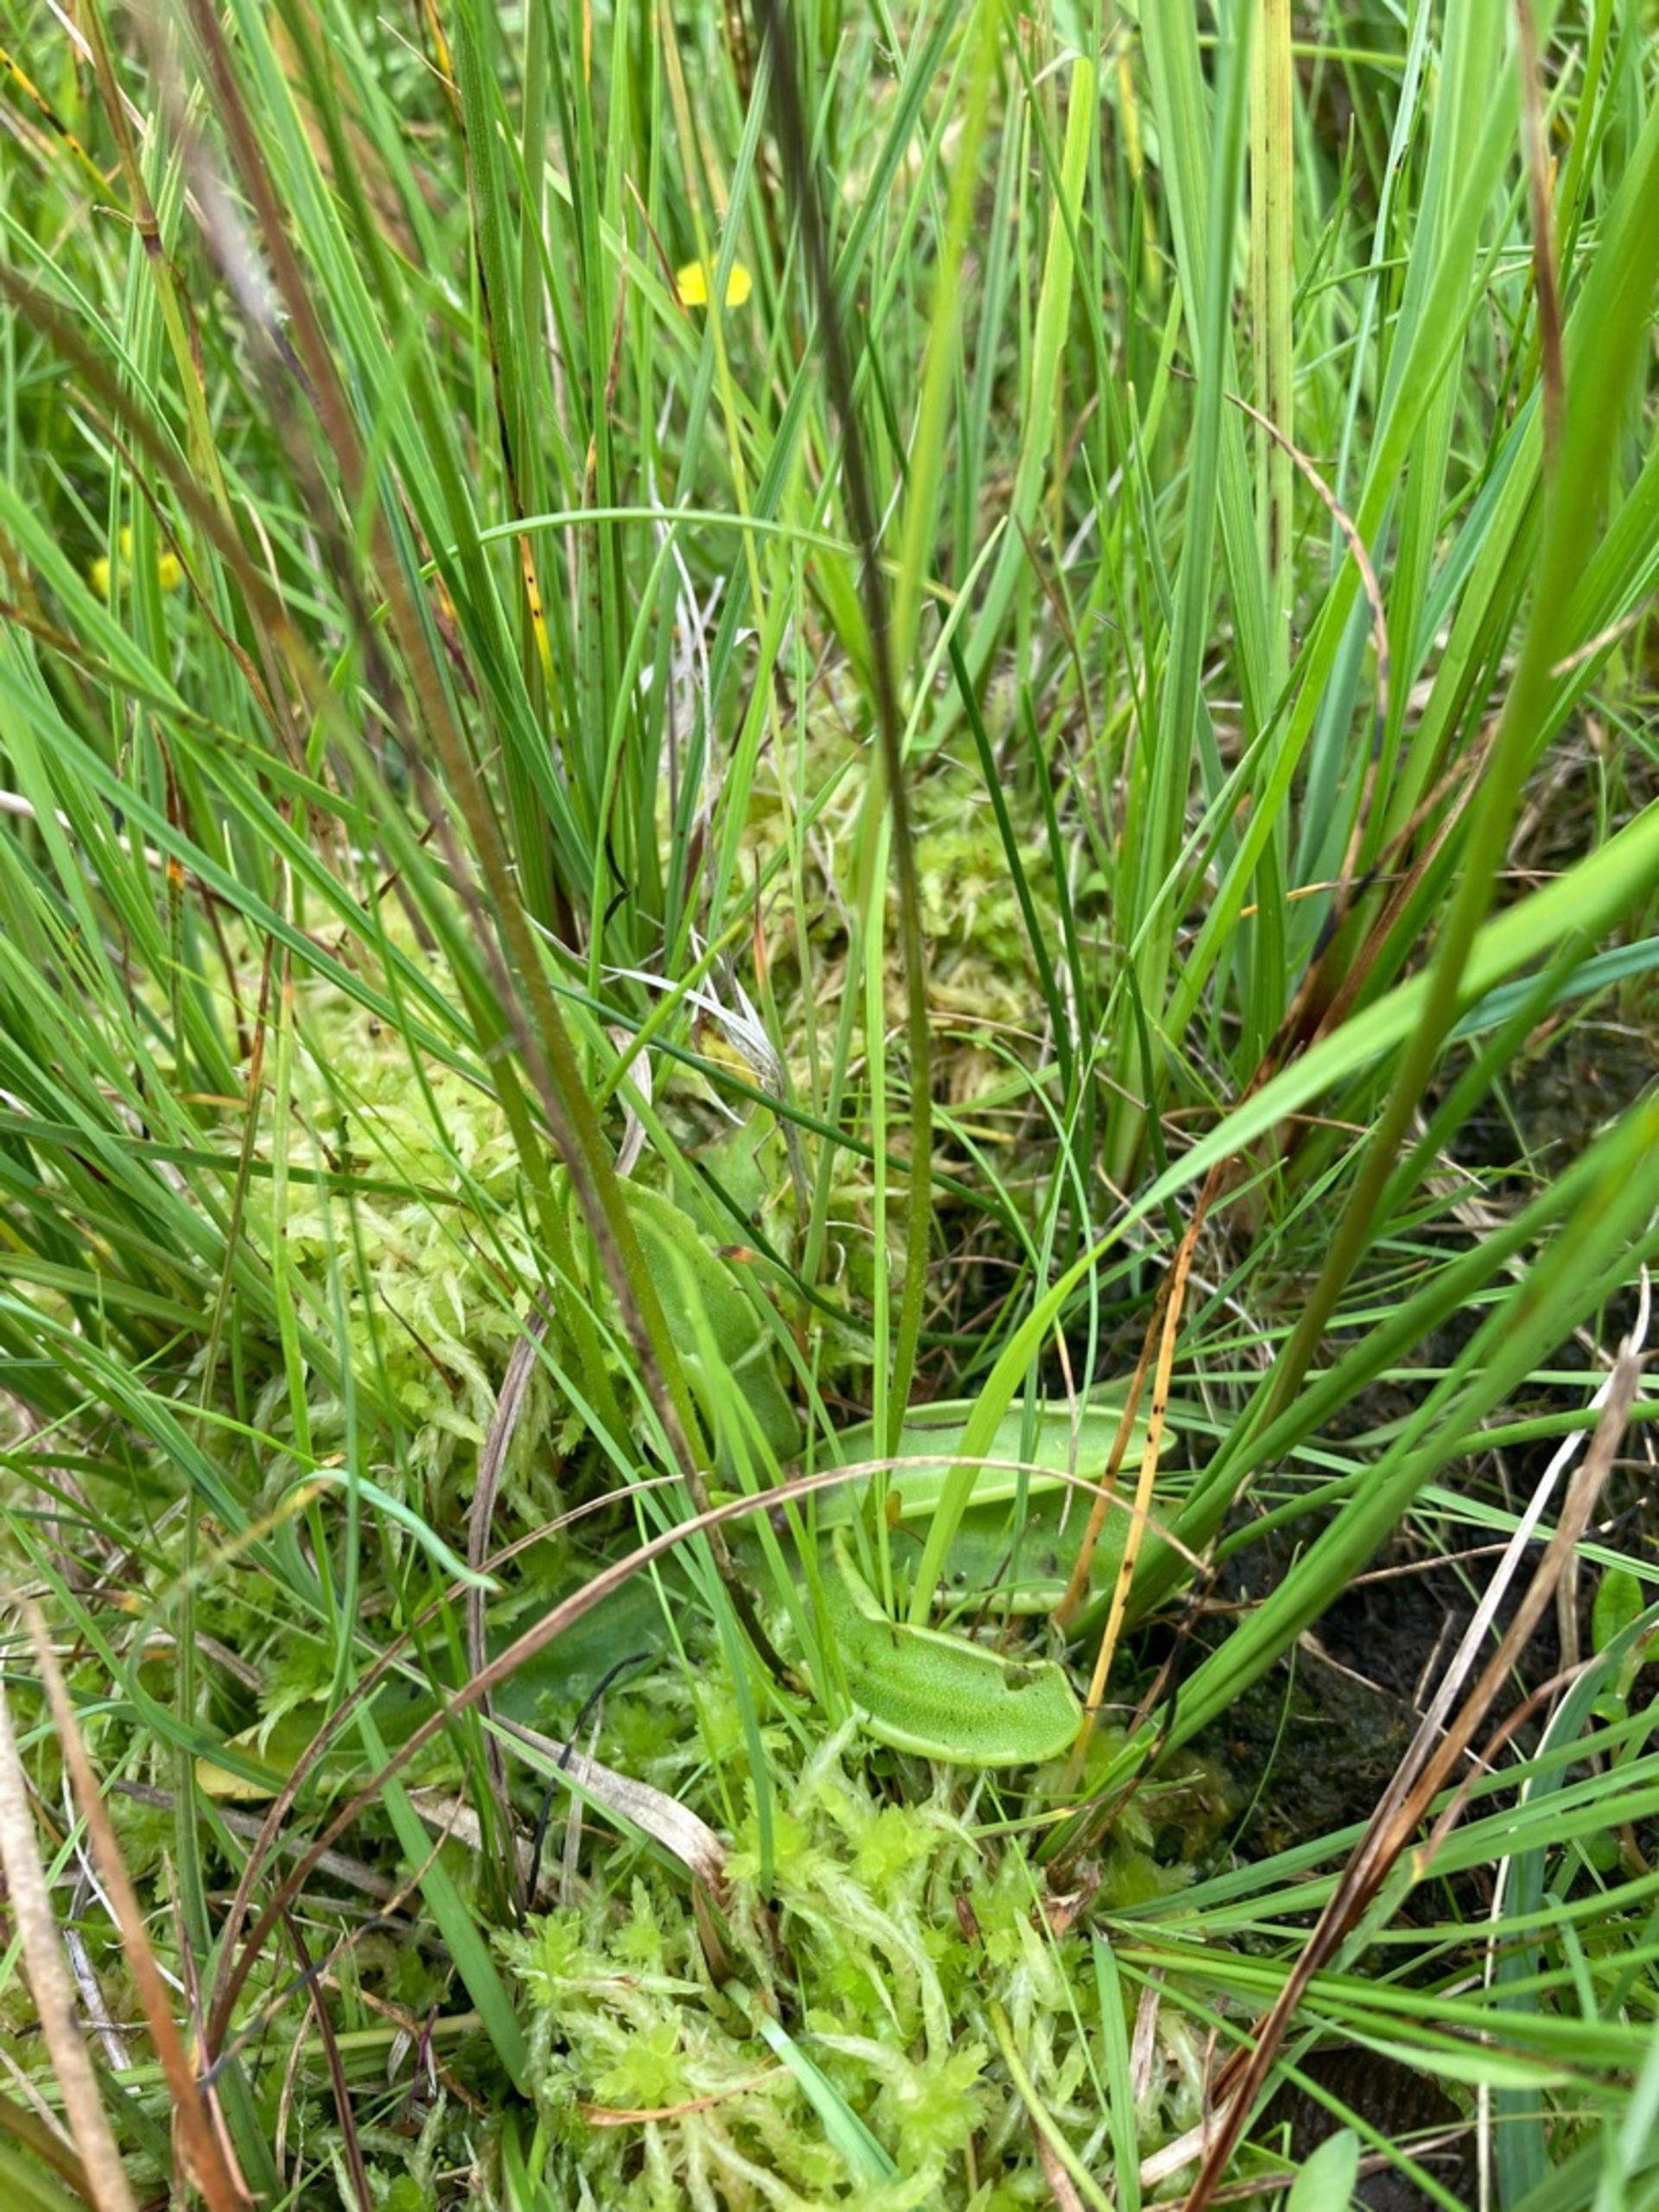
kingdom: Plantae
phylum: Tracheophyta
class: Magnoliopsida
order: Lamiales
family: Lentibulariaceae
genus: Pinguicula
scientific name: Pinguicula vulgaris
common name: Vibefedt
